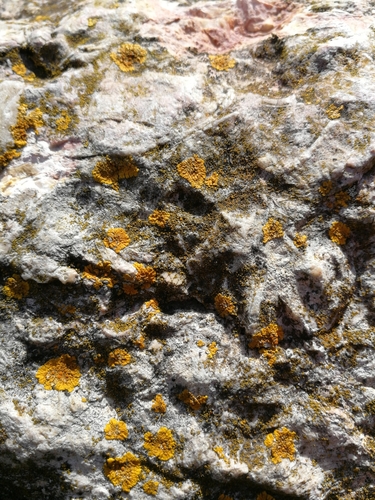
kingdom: Fungi
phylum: Ascomycota
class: Lecanoromycetes
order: Teloschistales
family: Teloschistaceae
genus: Variospora
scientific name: Variospora flavescens
